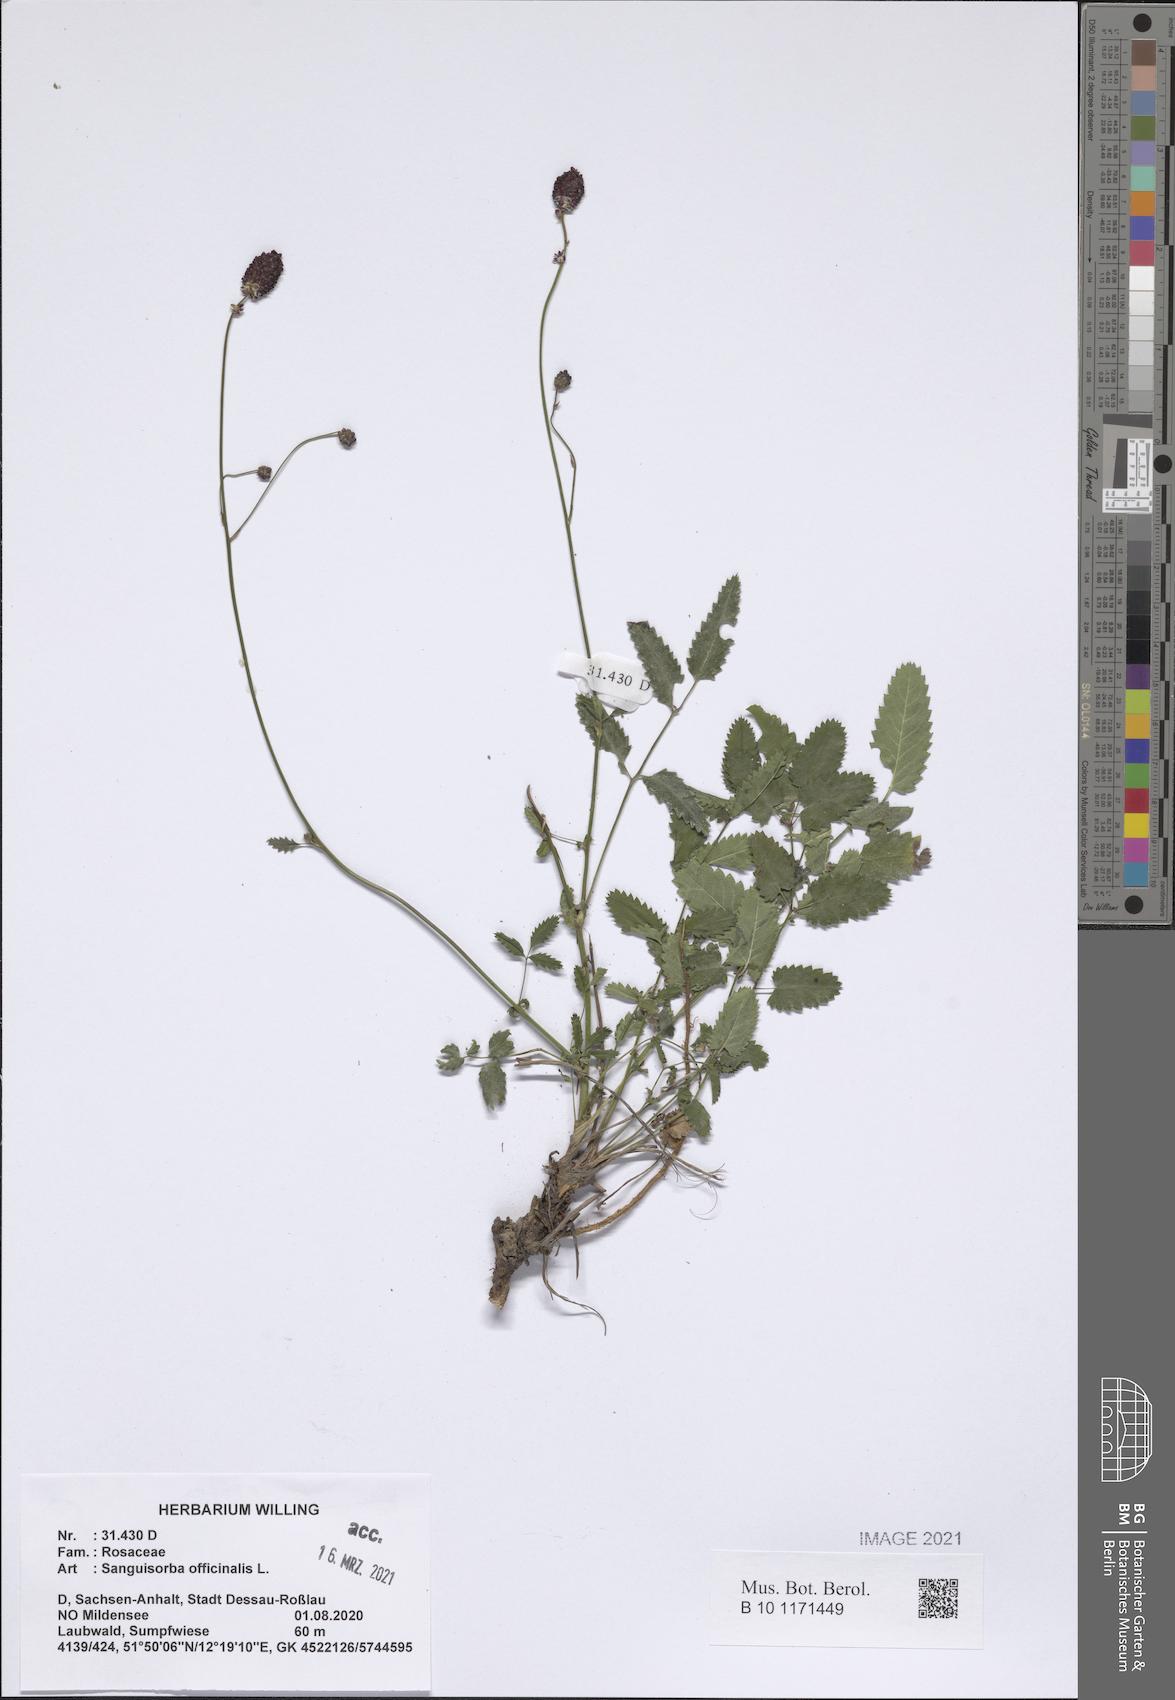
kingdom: Plantae
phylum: Tracheophyta
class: Magnoliopsida
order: Rosales
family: Rosaceae
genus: Sanguisorba
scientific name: Sanguisorba officinalis
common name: Great burnet
